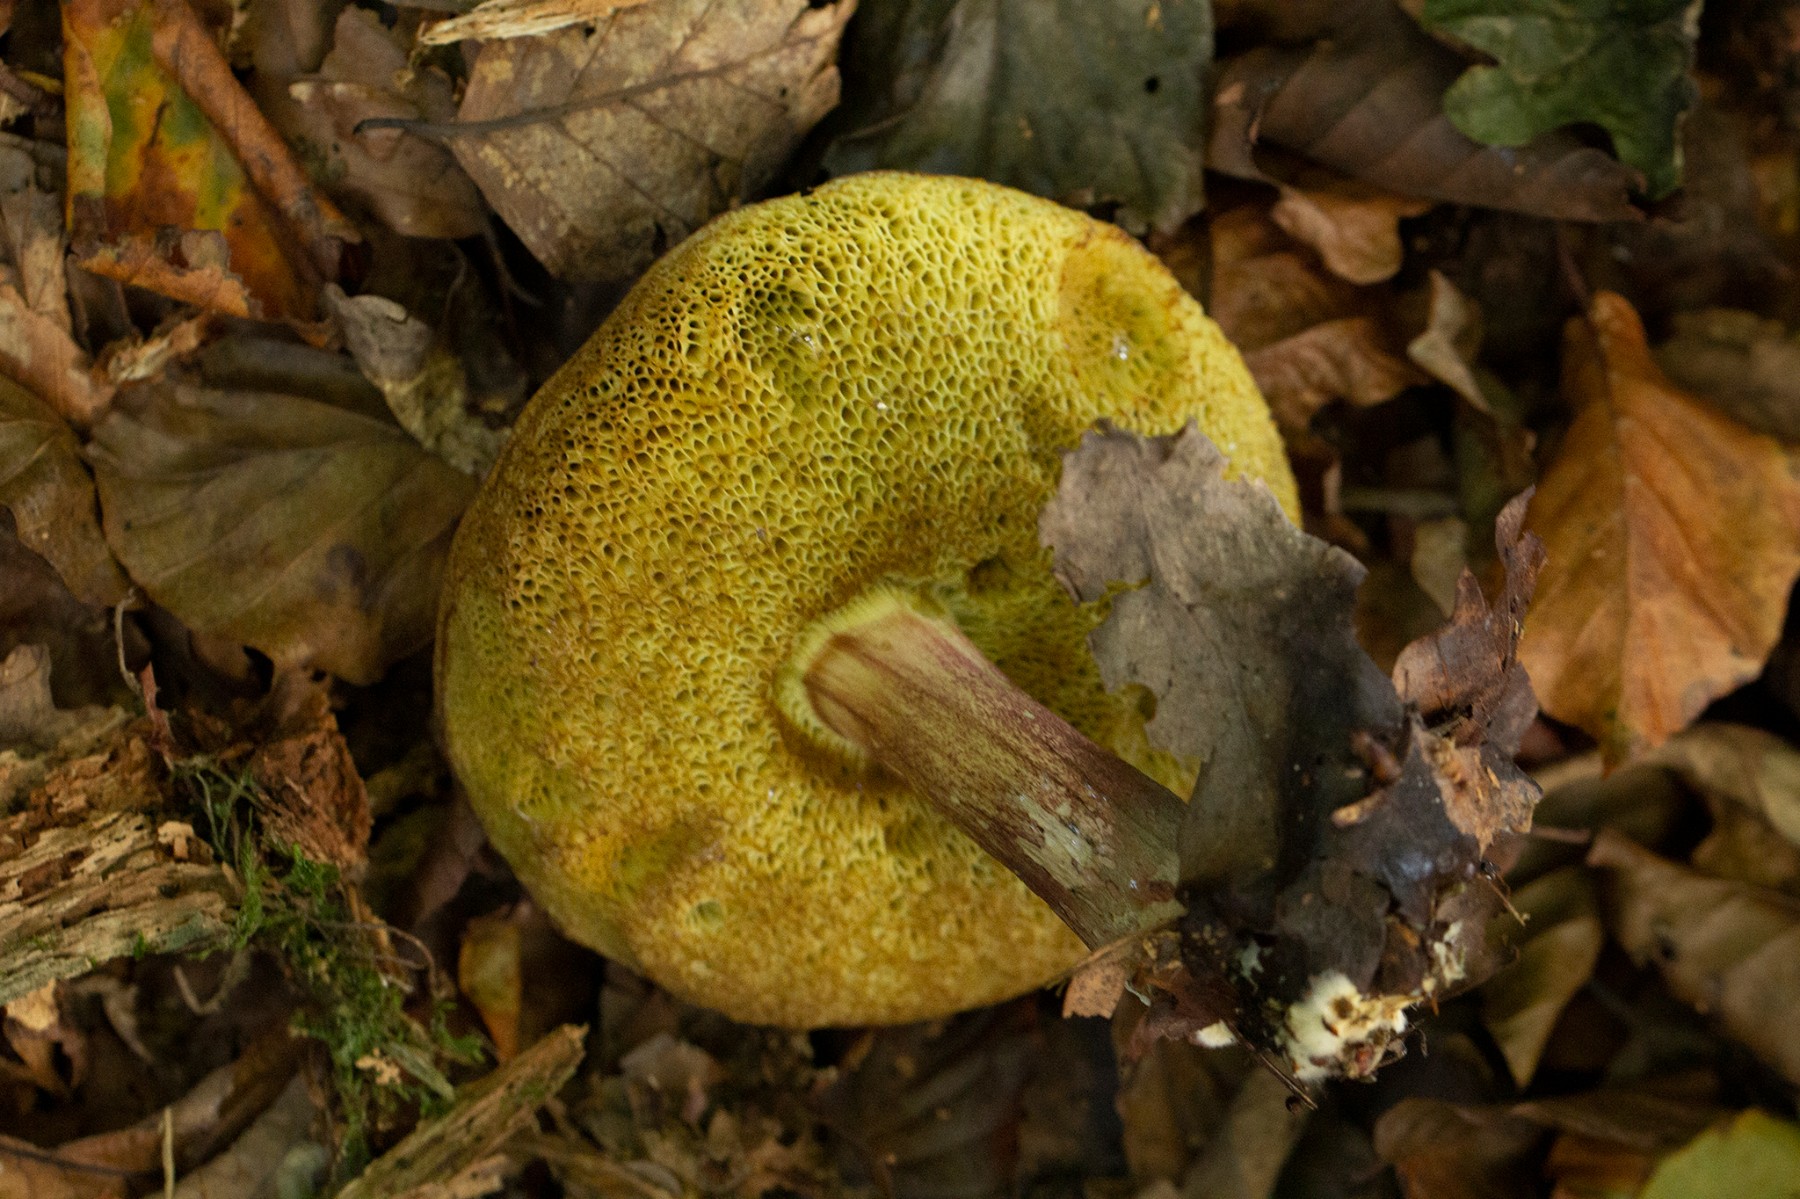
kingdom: Fungi
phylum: Basidiomycota
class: Agaricomycetes
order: Boletales
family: Boletaceae
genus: Xerocomellus
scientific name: Xerocomellus
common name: dværgrørhat
